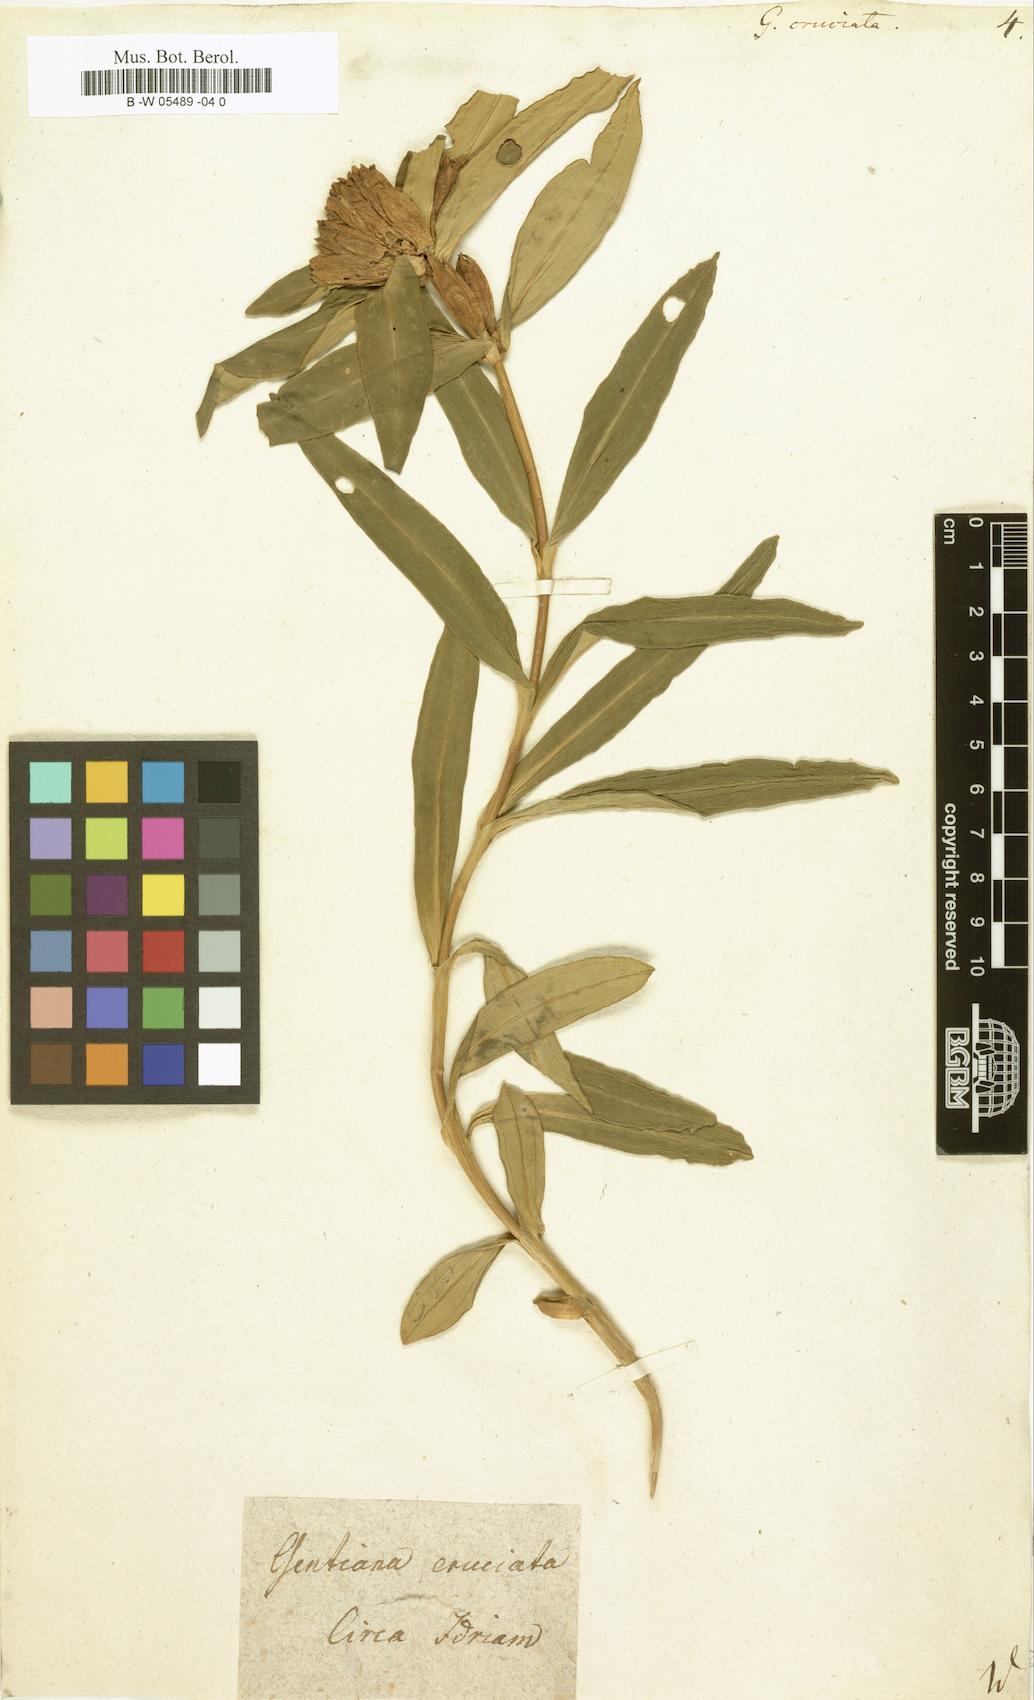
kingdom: Plantae
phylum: Tracheophyta
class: Magnoliopsida
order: Gentianales
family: Gentianaceae
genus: Gentiana
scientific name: Gentiana cruciata
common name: Cross gentian
